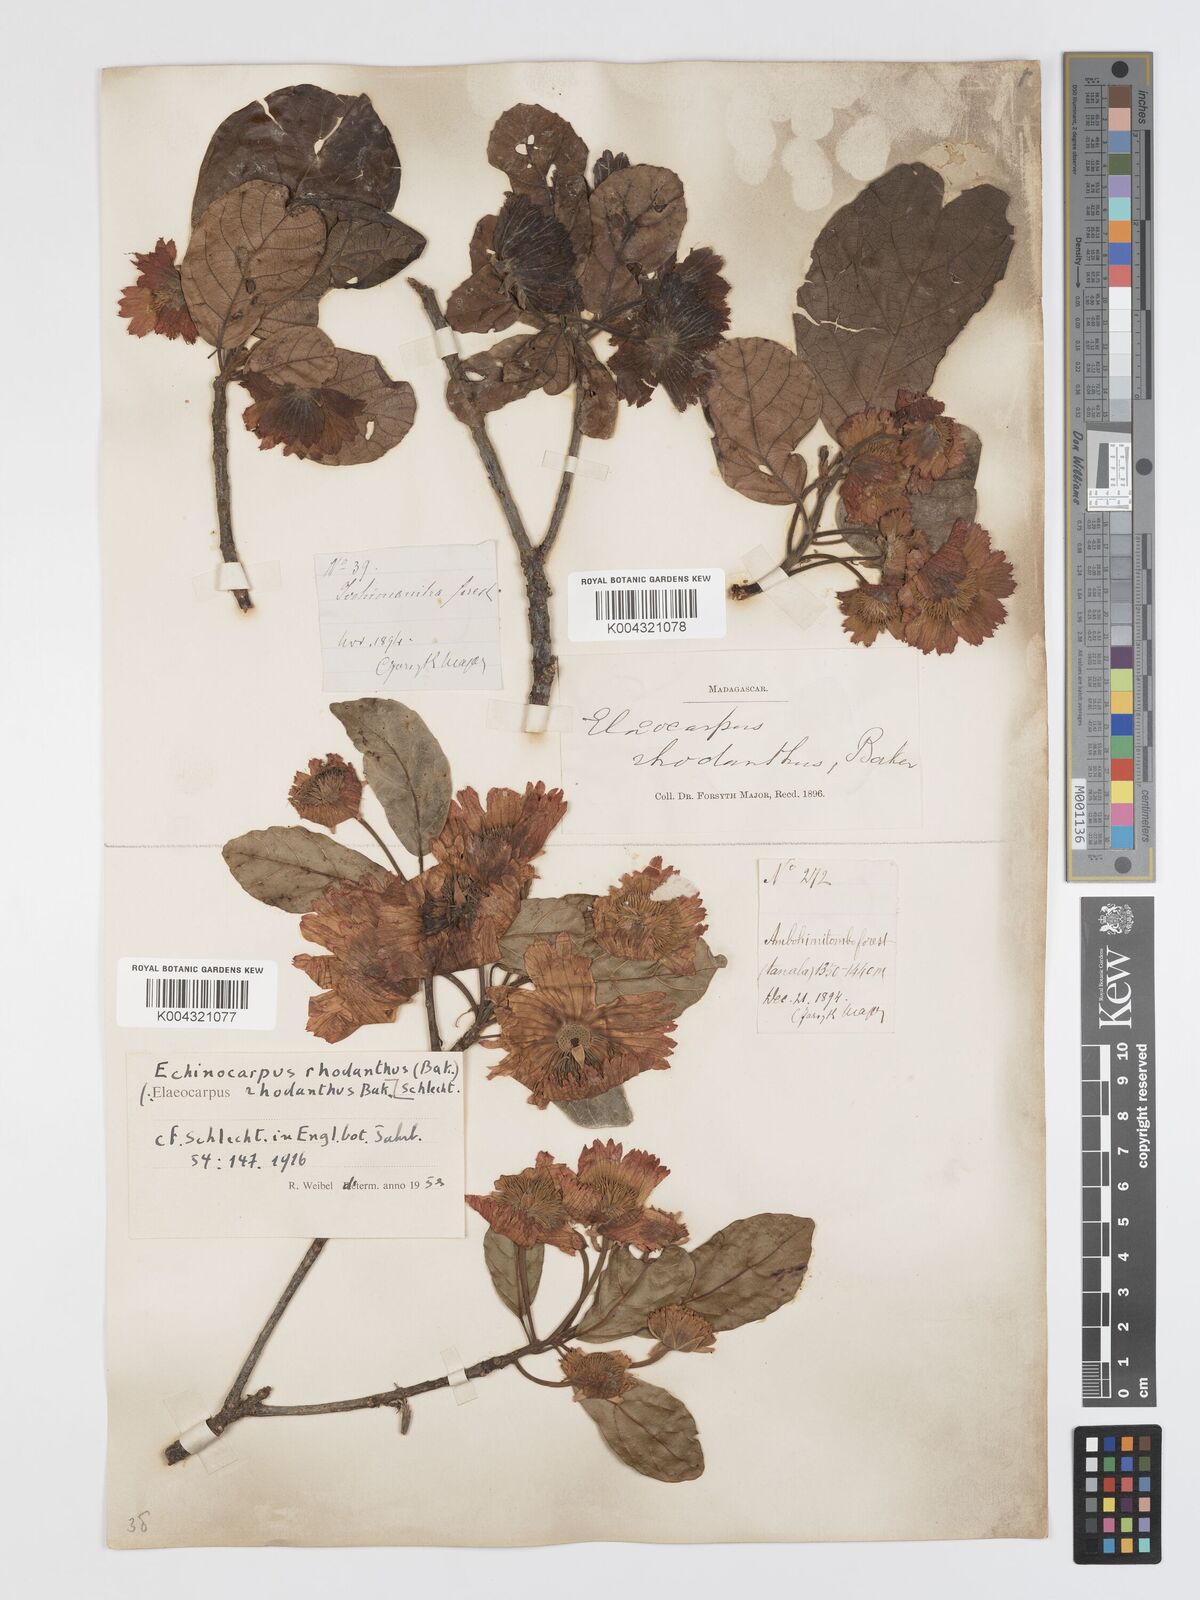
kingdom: Plantae
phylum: Tracheophyta
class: Magnoliopsida
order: Oxalidales
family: Elaeocarpaceae
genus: Sloanea
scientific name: Sloanea rhodantha
